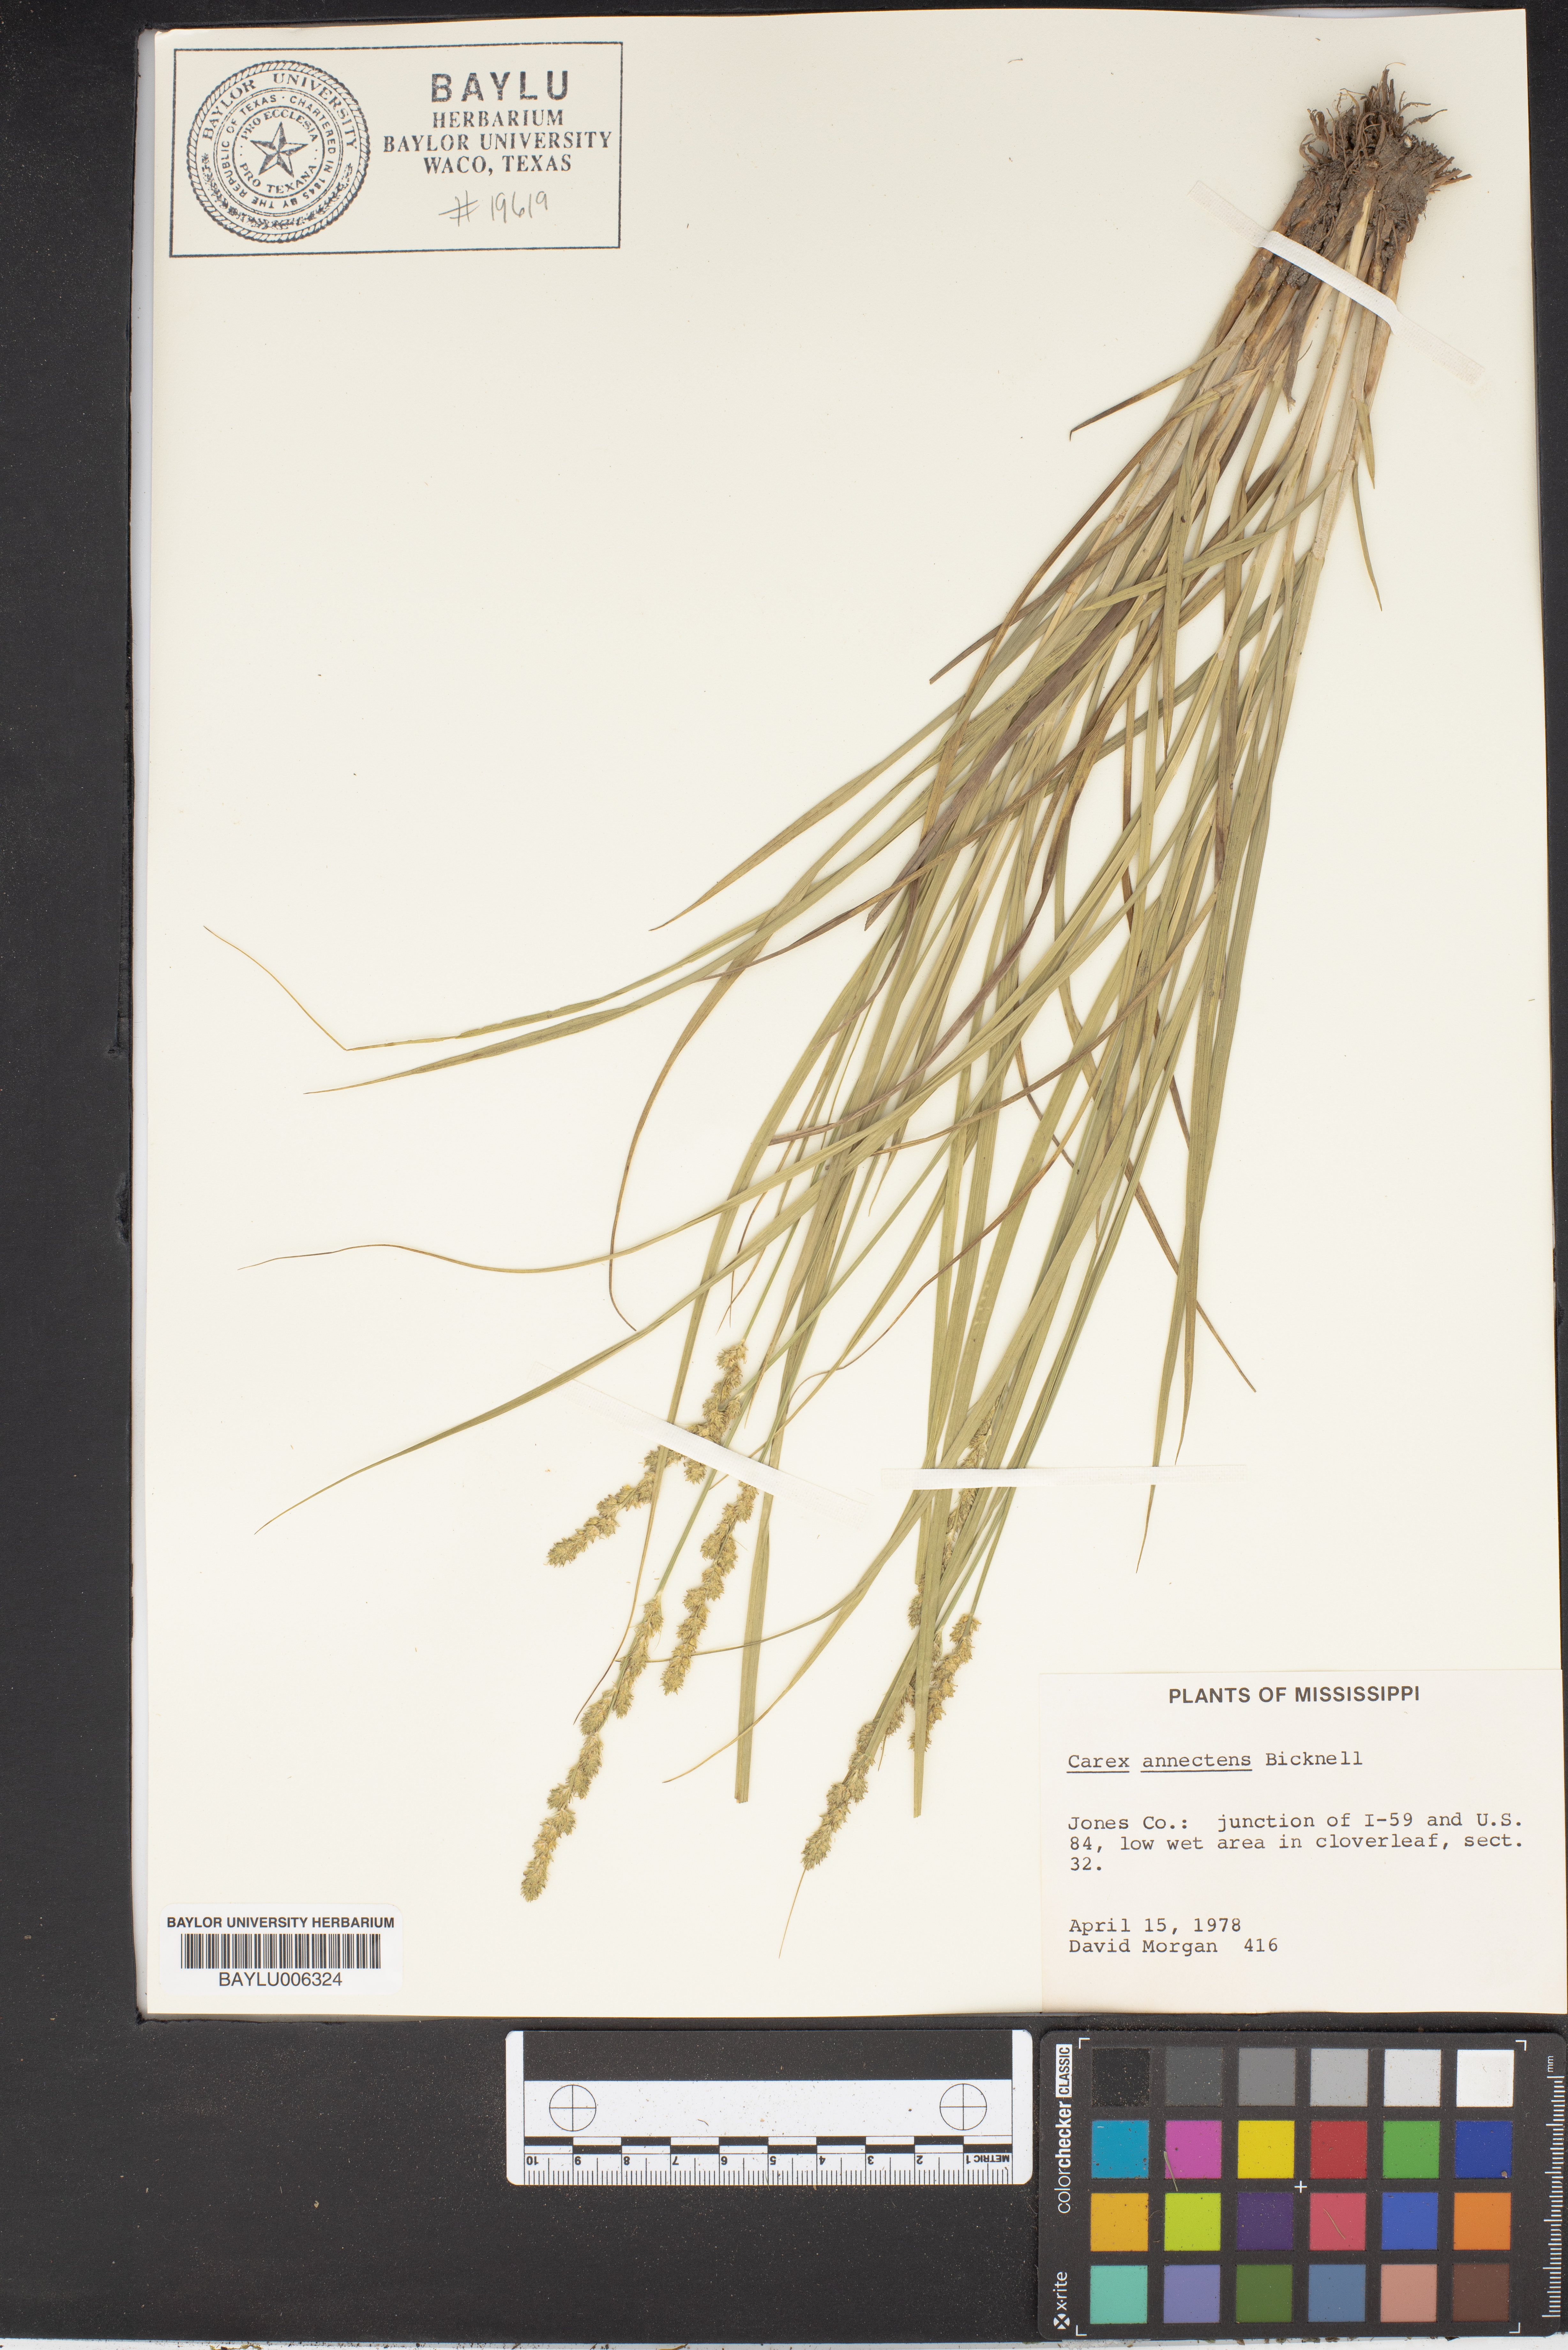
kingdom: Plantae
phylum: Tracheophyta
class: Liliopsida
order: Poales
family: Cyperaceae
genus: Carex
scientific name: Carex annectens
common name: Large fox sedge
